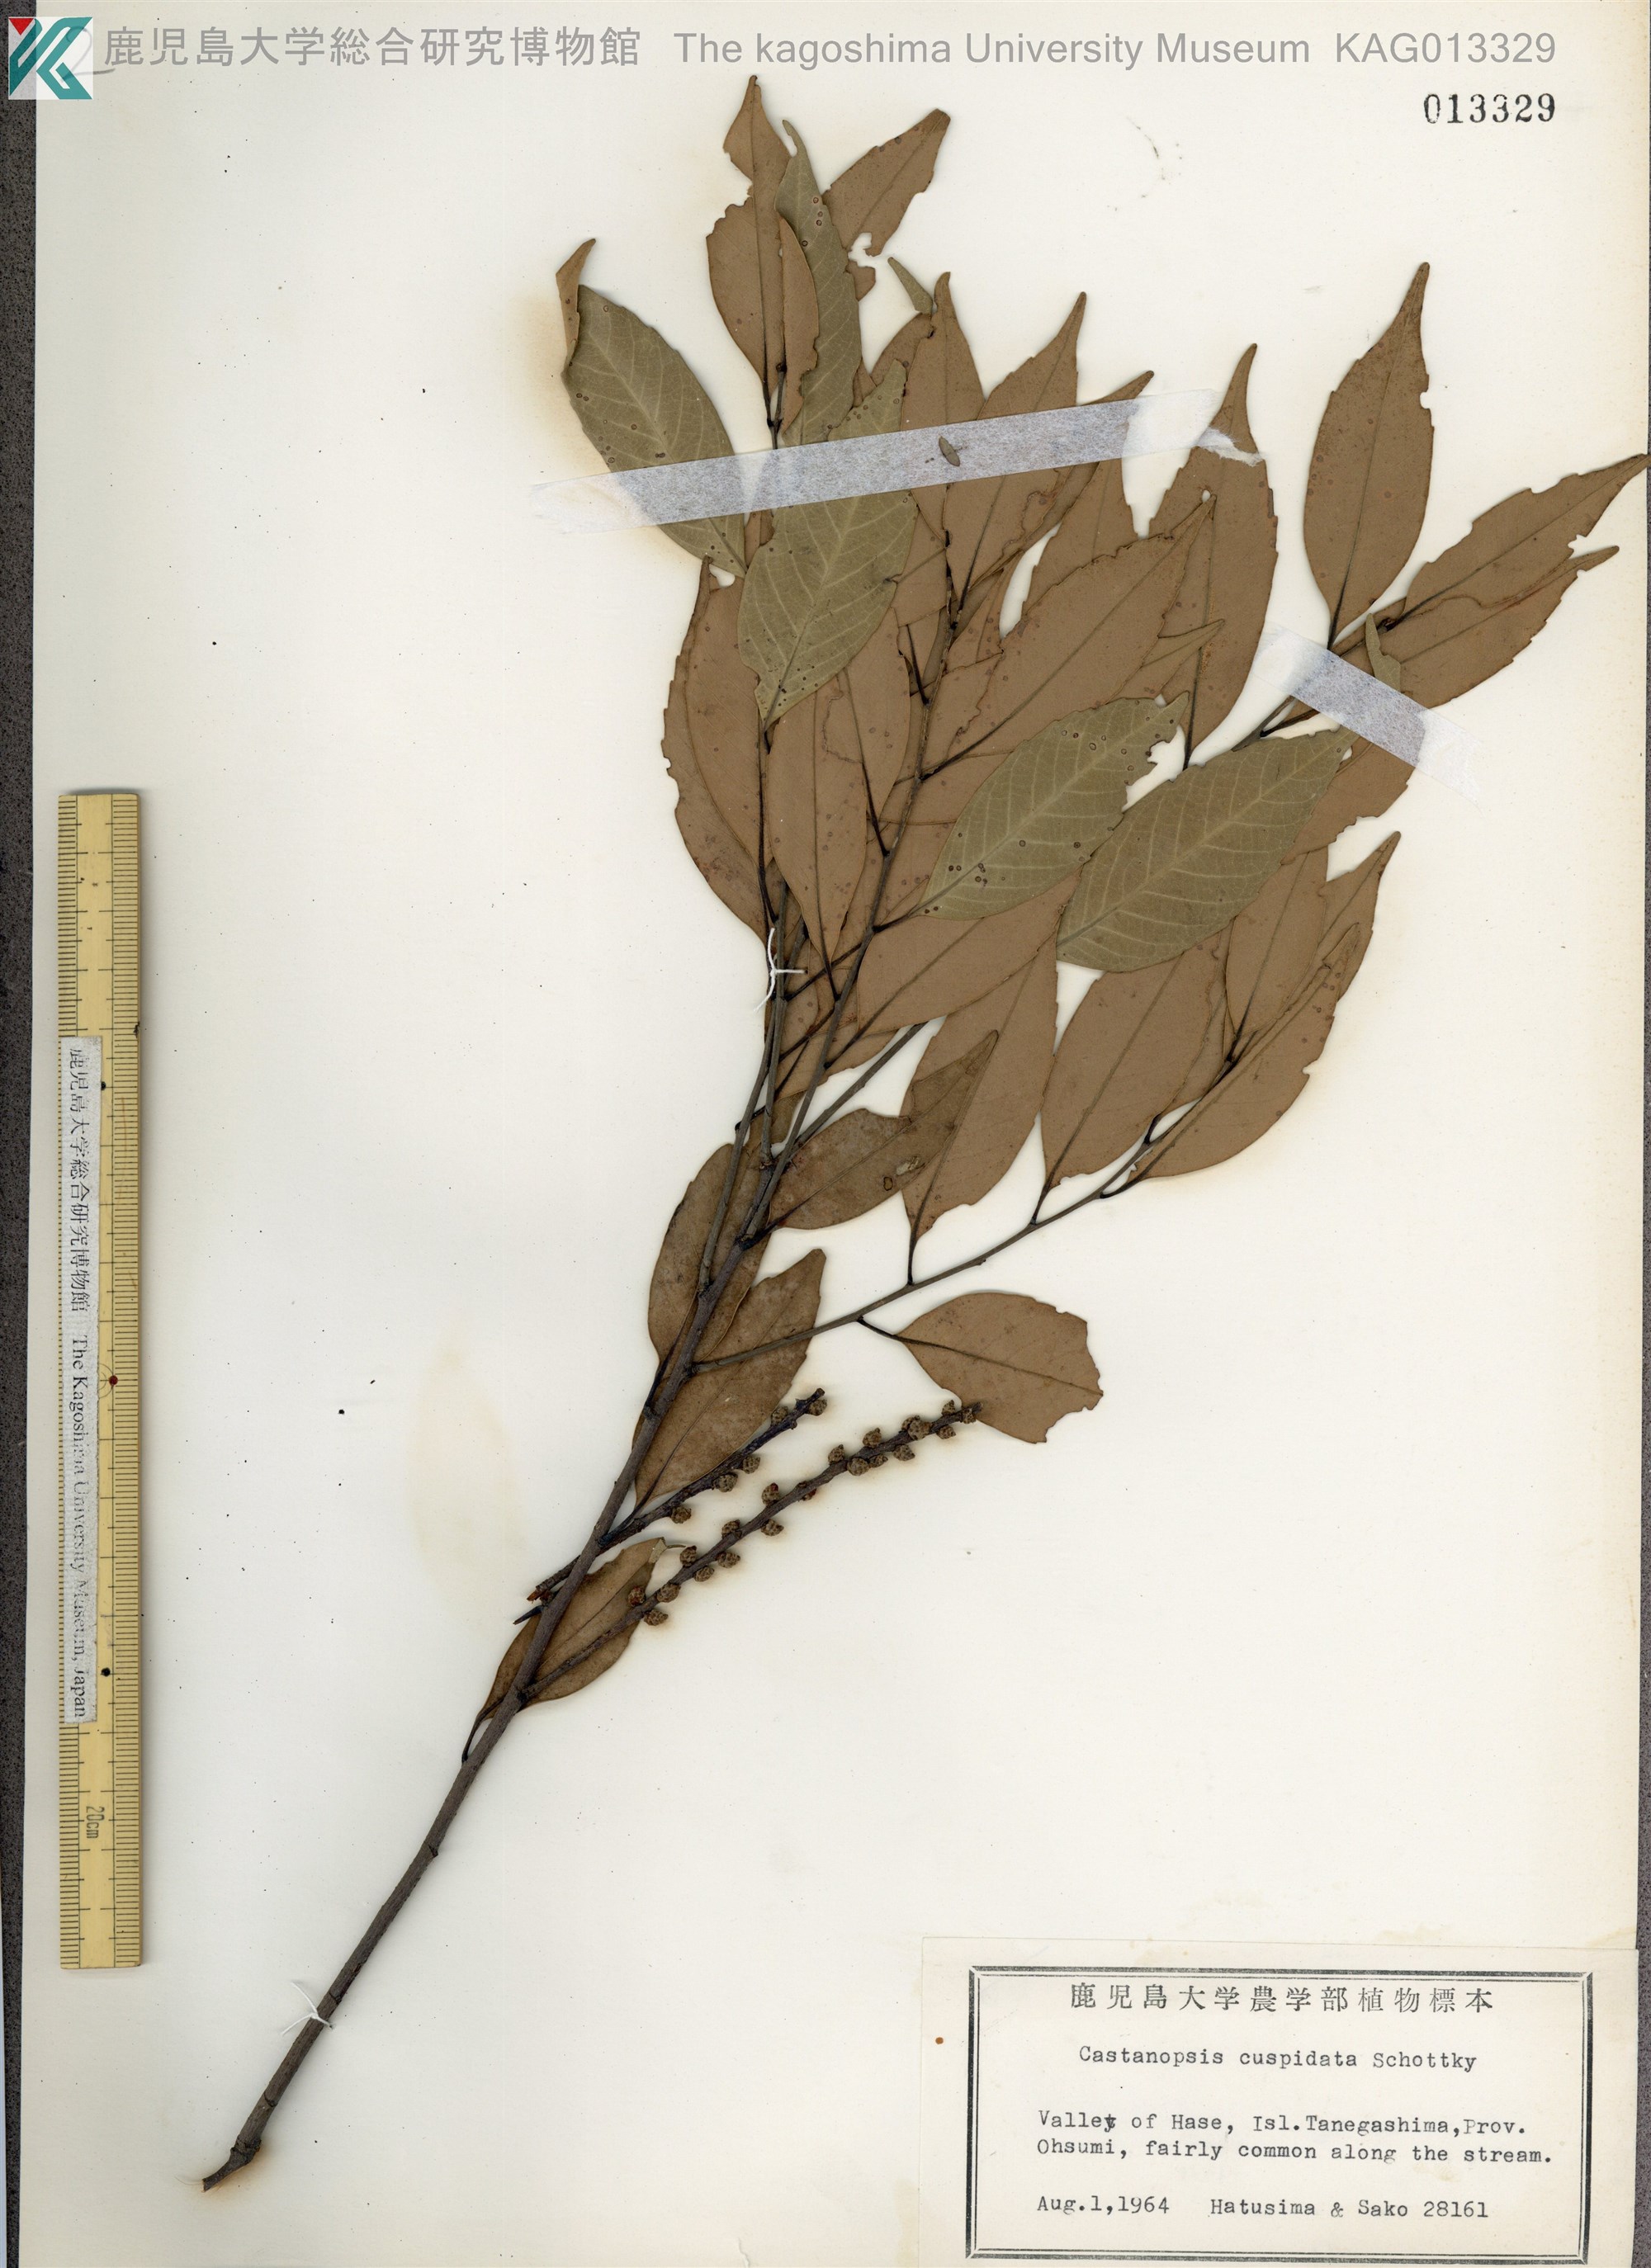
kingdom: Plantae
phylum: Tracheophyta
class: Magnoliopsida
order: Fagales
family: Fagaceae
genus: Castanopsis
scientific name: Castanopsis cuspidata
